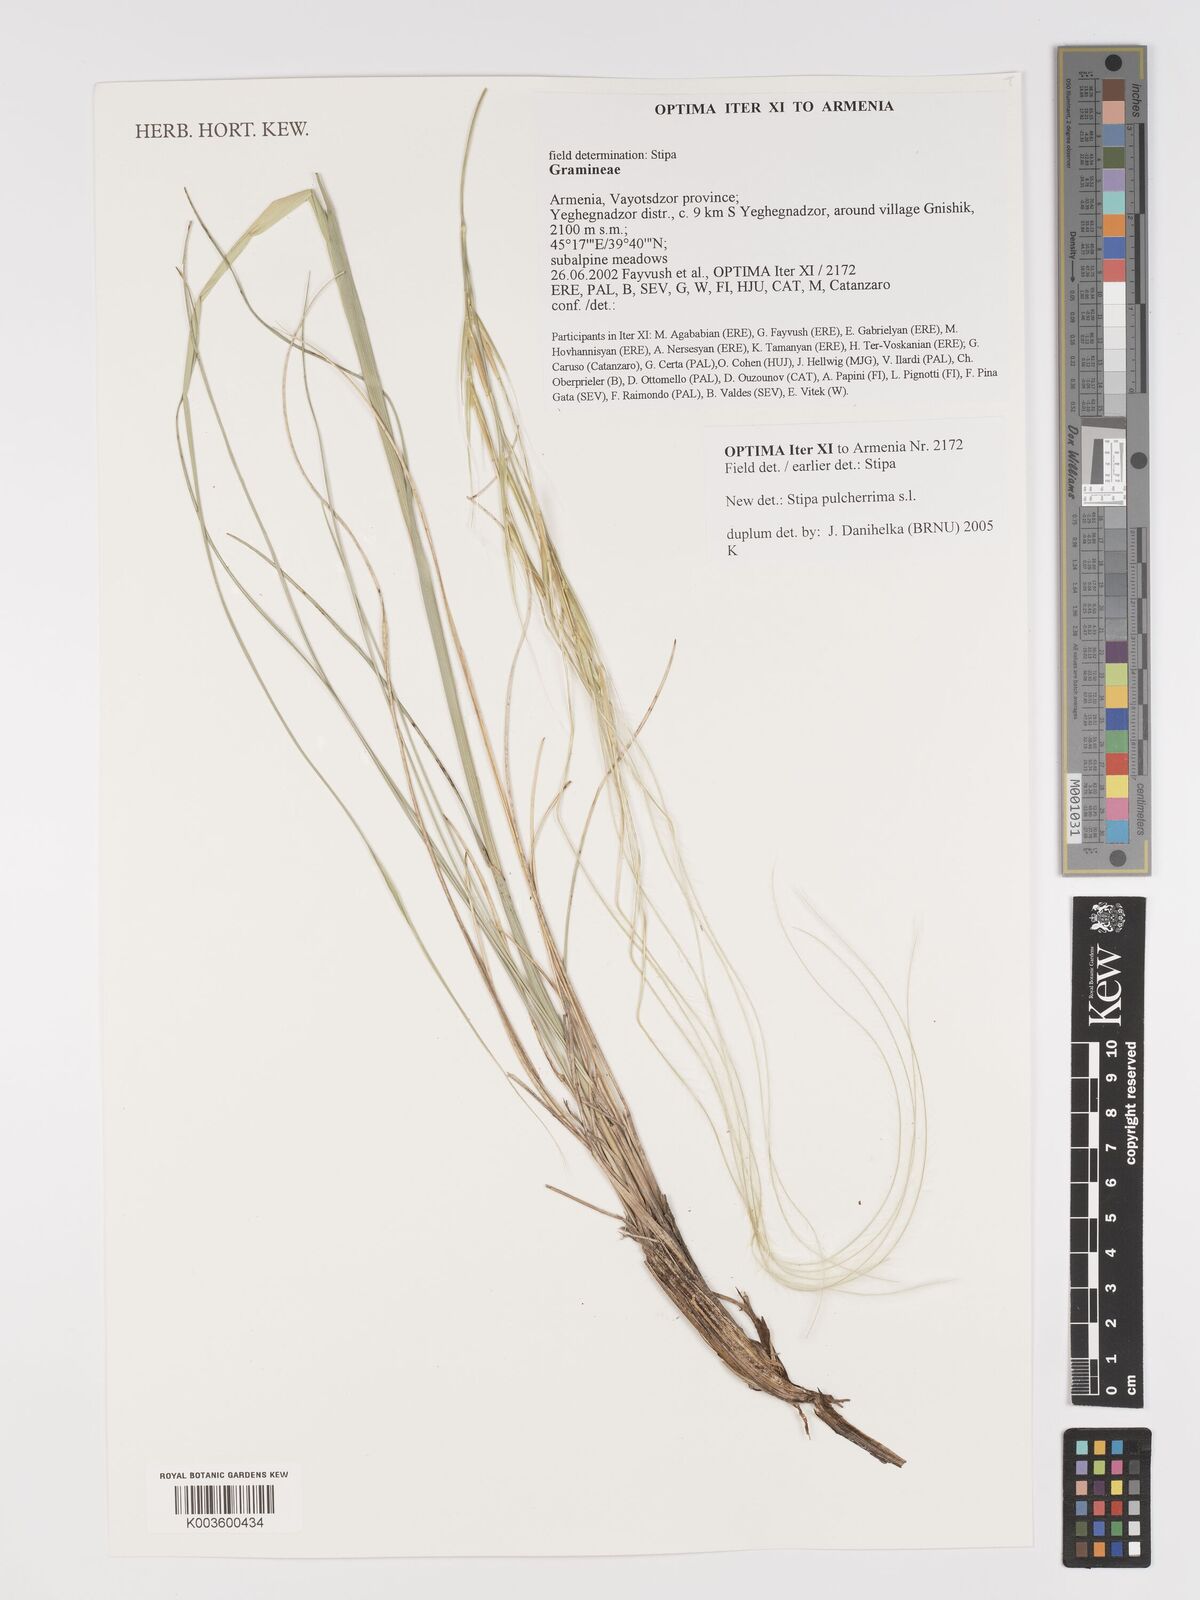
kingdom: Plantae
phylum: Tracheophyta
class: Liliopsida
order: Poales
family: Poaceae
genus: Stipa
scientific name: Stipa pulcherrima
